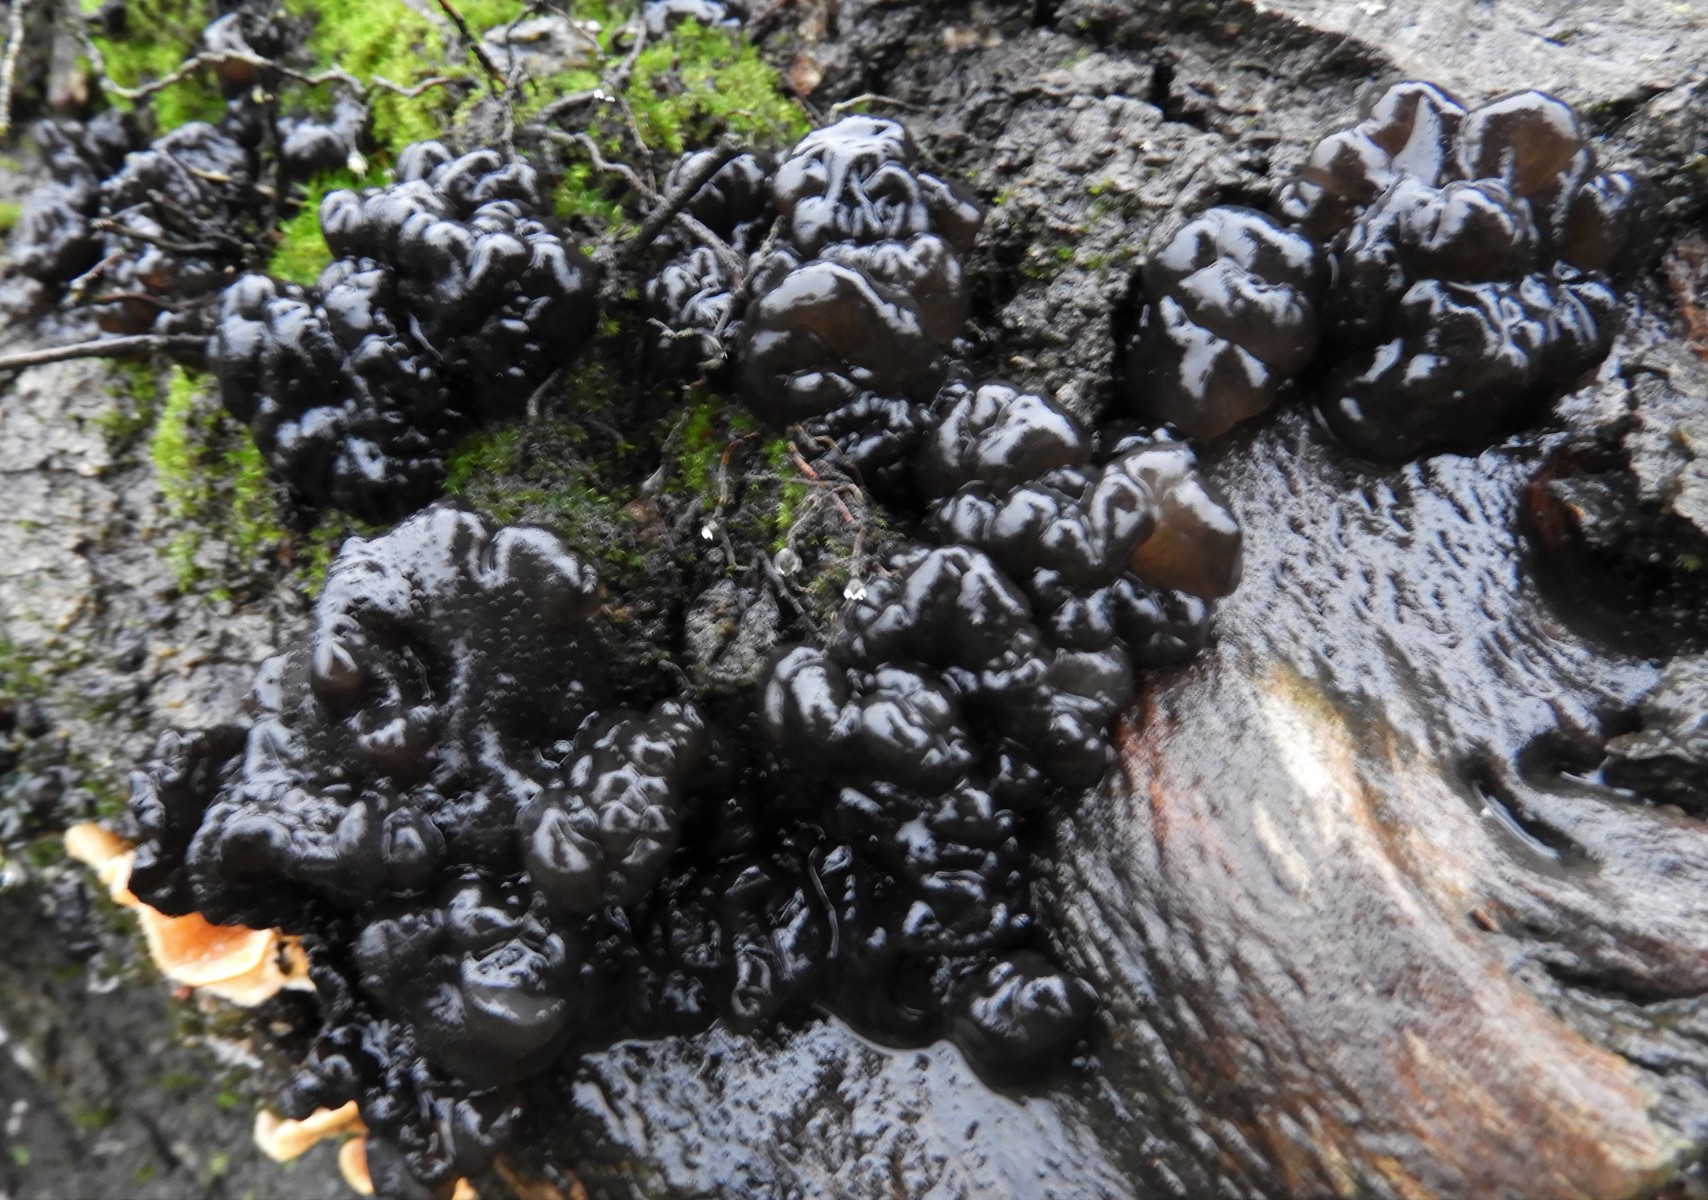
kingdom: Fungi
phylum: Basidiomycota
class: Agaricomycetes
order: Auriculariales
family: Auriculariaceae
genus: Exidia
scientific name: Exidia nigricans
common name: almindelig bævretop
